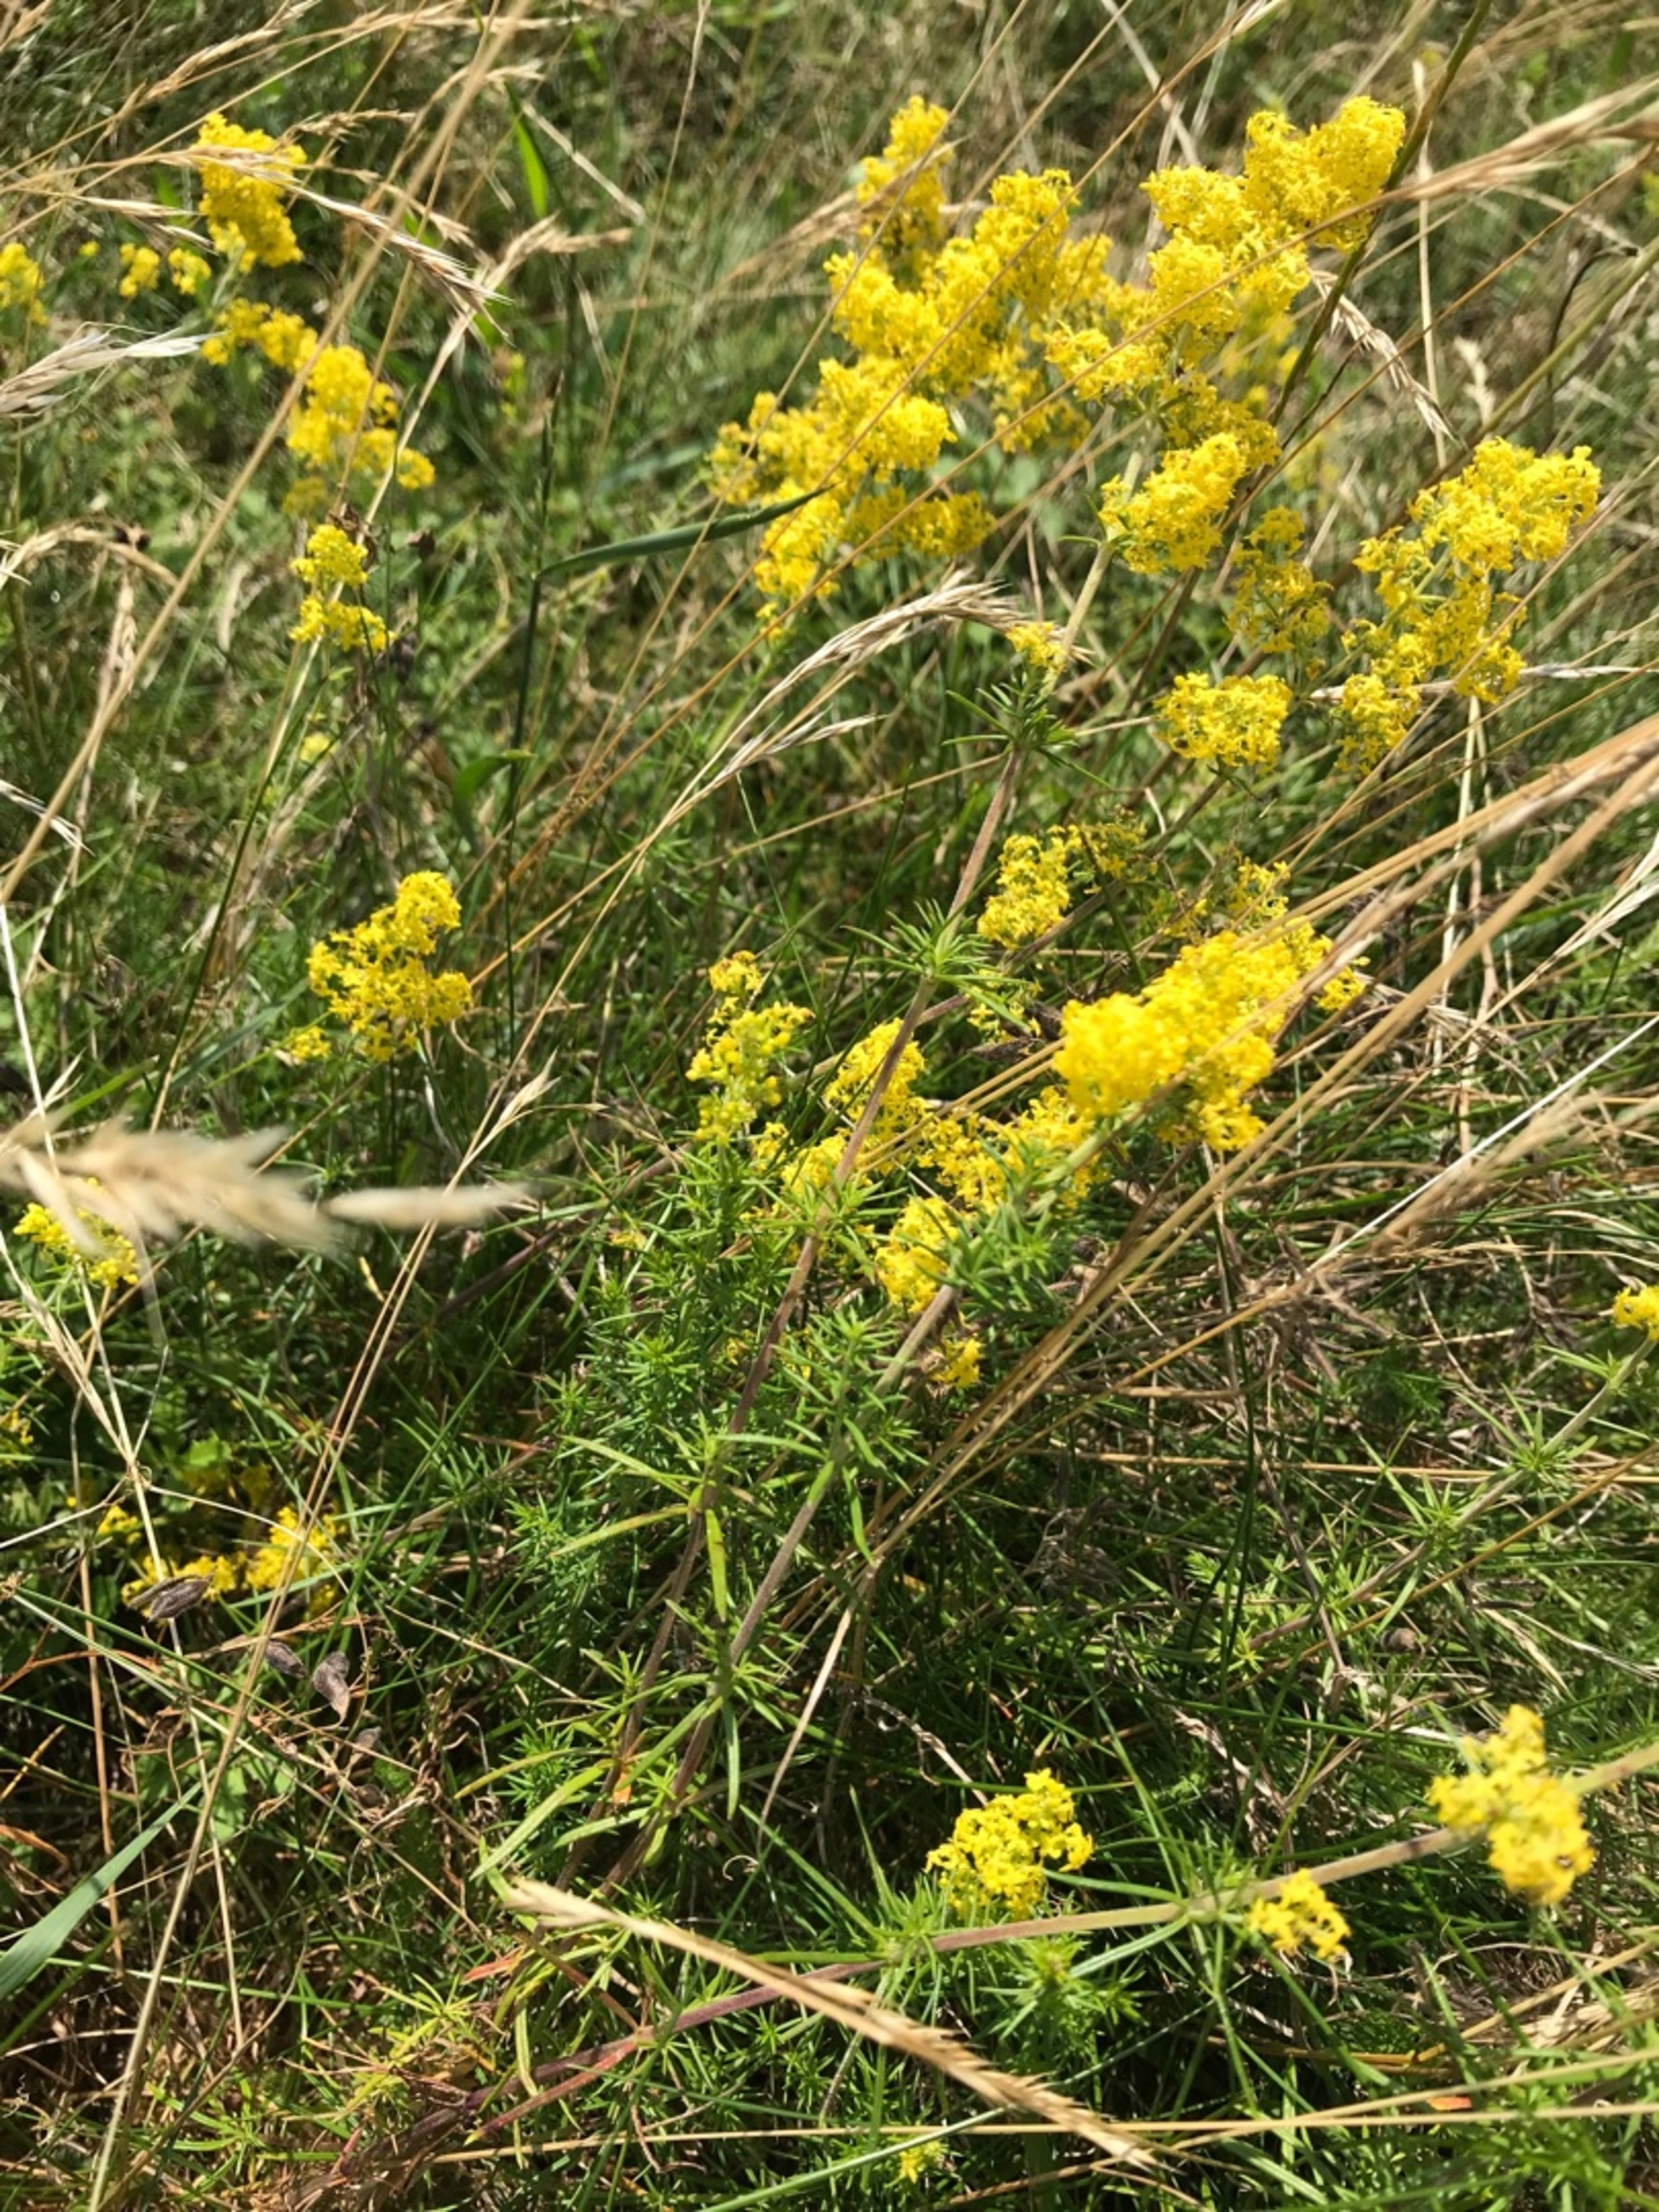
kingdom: Plantae
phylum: Tracheophyta
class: Magnoliopsida
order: Gentianales
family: Rubiaceae
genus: Galium
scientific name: Galium verum
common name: Gul snerre
